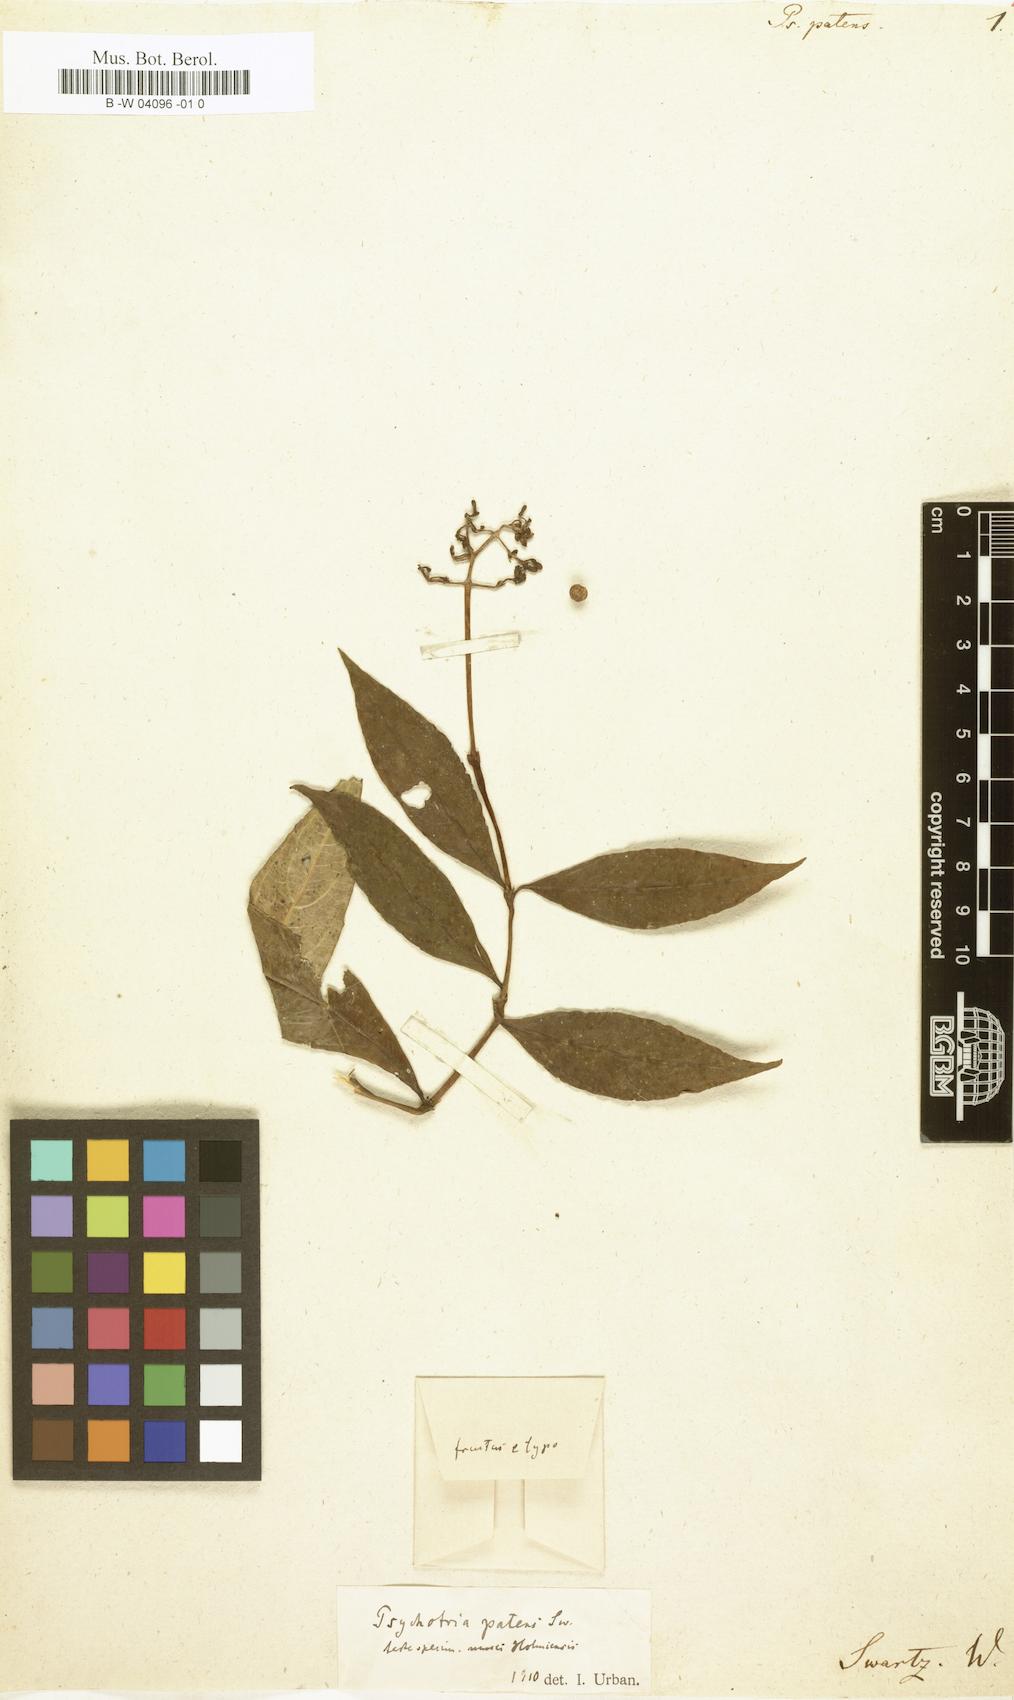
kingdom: Plantae
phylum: Tracheophyta
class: Magnoliopsida
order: Gentianales
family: Rubiaceae
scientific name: Rubiaceae
